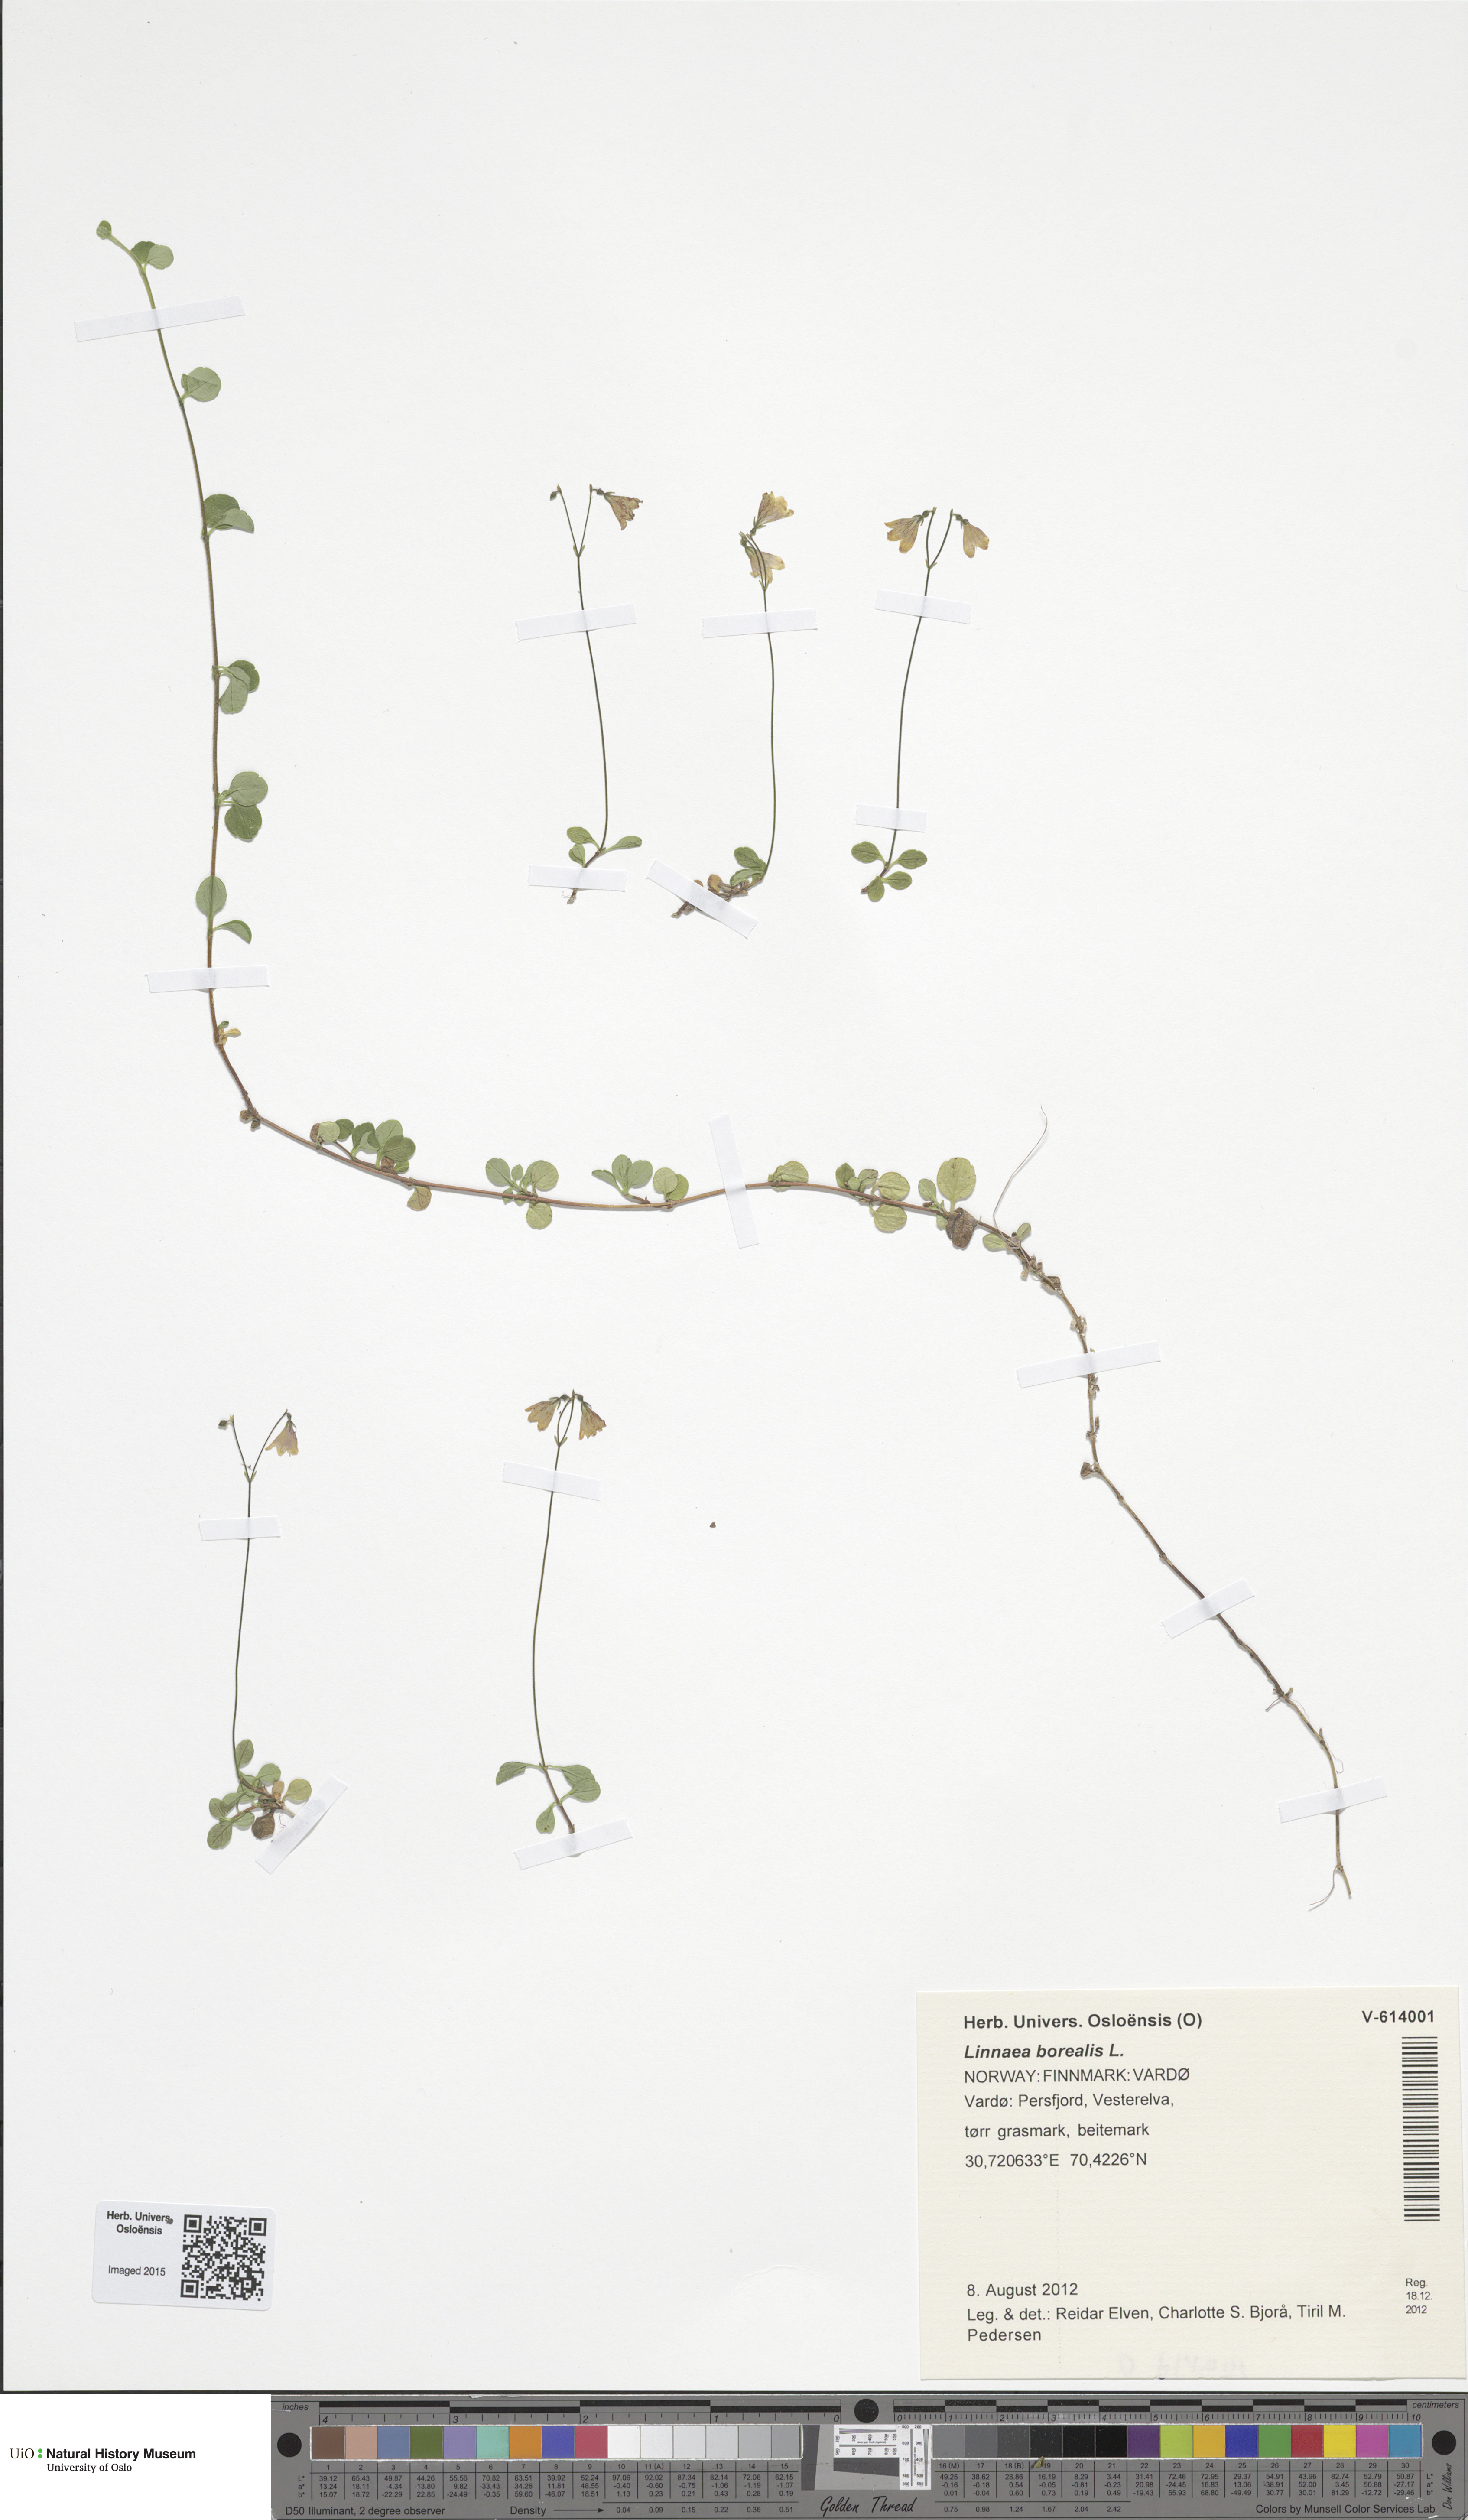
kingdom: Plantae
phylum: Tracheophyta
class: Magnoliopsida
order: Dipsacales
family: Caprifoliaceae
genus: Linnaea
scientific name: Linnaea borealis
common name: Twinflower
